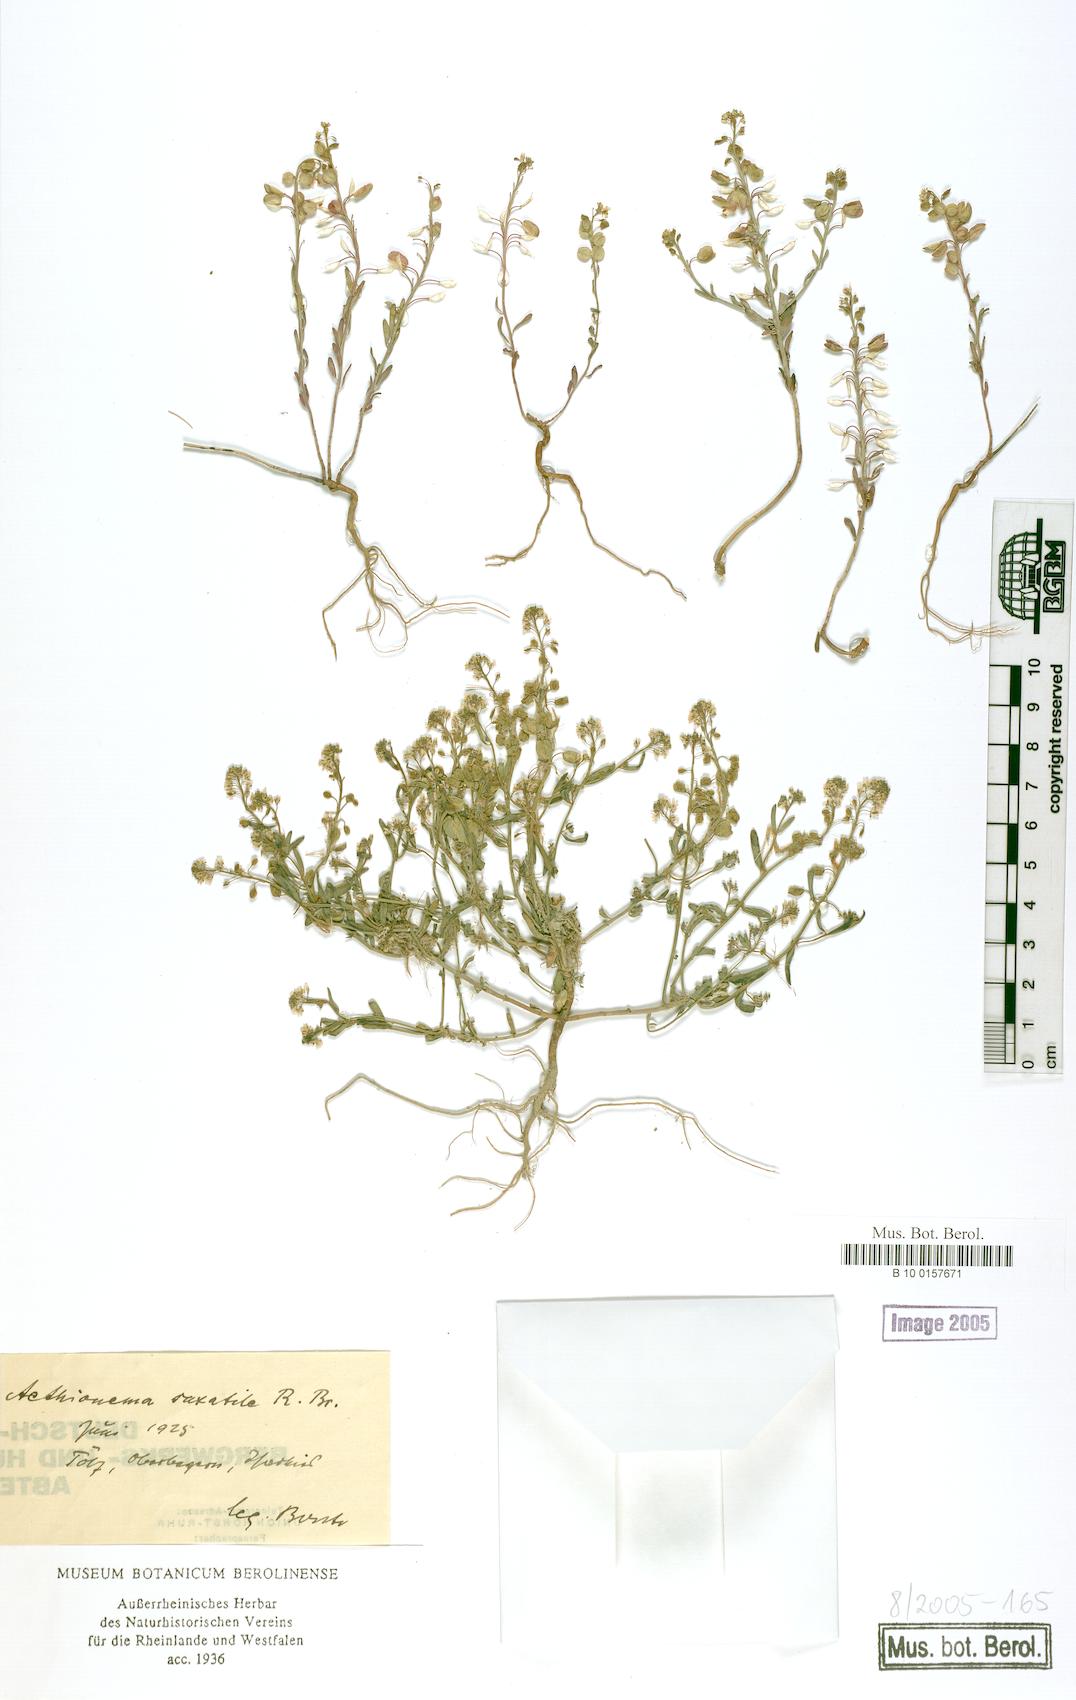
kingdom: Plantae
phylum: Tracheophyta
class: Magnoliopsida
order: Brassicales
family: Brassicaceae
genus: Aethionema
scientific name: Aethionema saxatile
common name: Burnt candytuft
